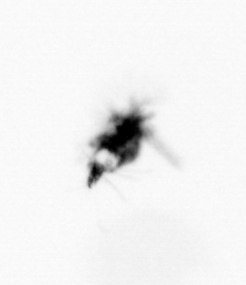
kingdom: Animalia
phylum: Arthropoda
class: Copepoda
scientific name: Copepoda
